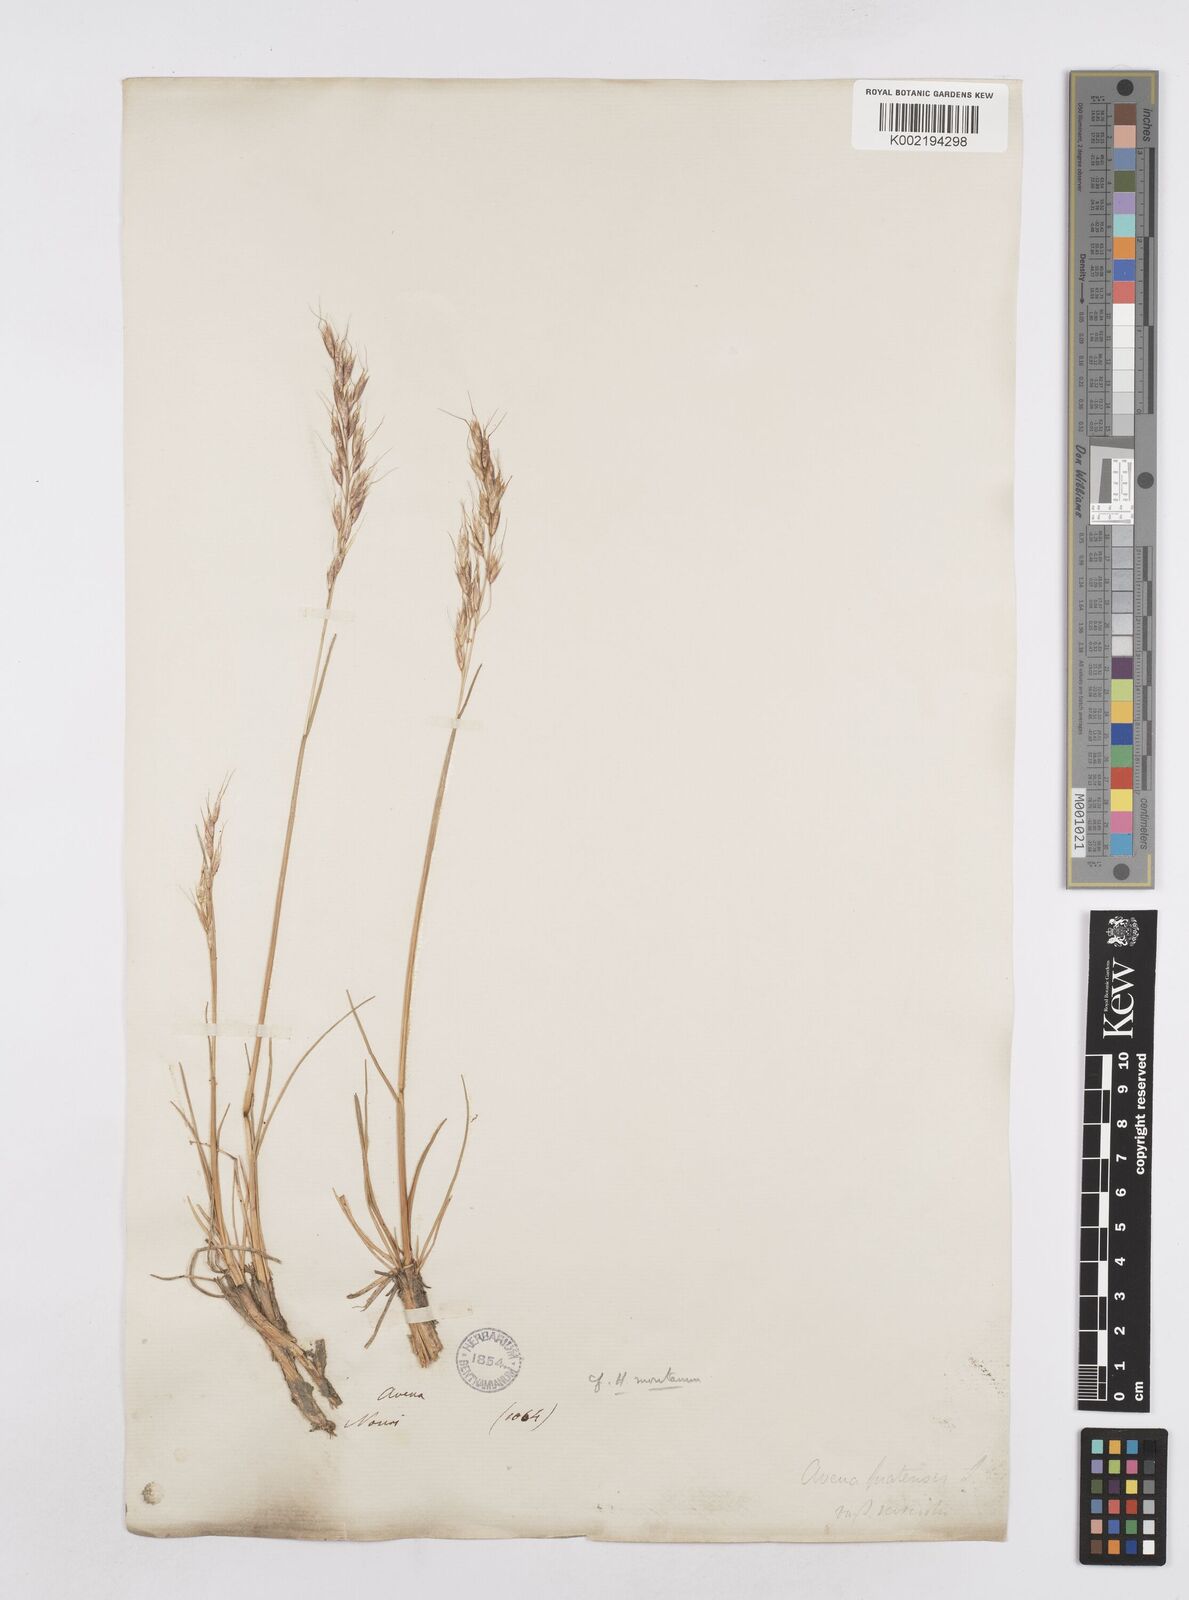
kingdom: Plantae
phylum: Tracheophyta
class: Liliopsida
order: Poales
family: Poaceae
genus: Helictotrichon
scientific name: Helictotrichon sedenense
